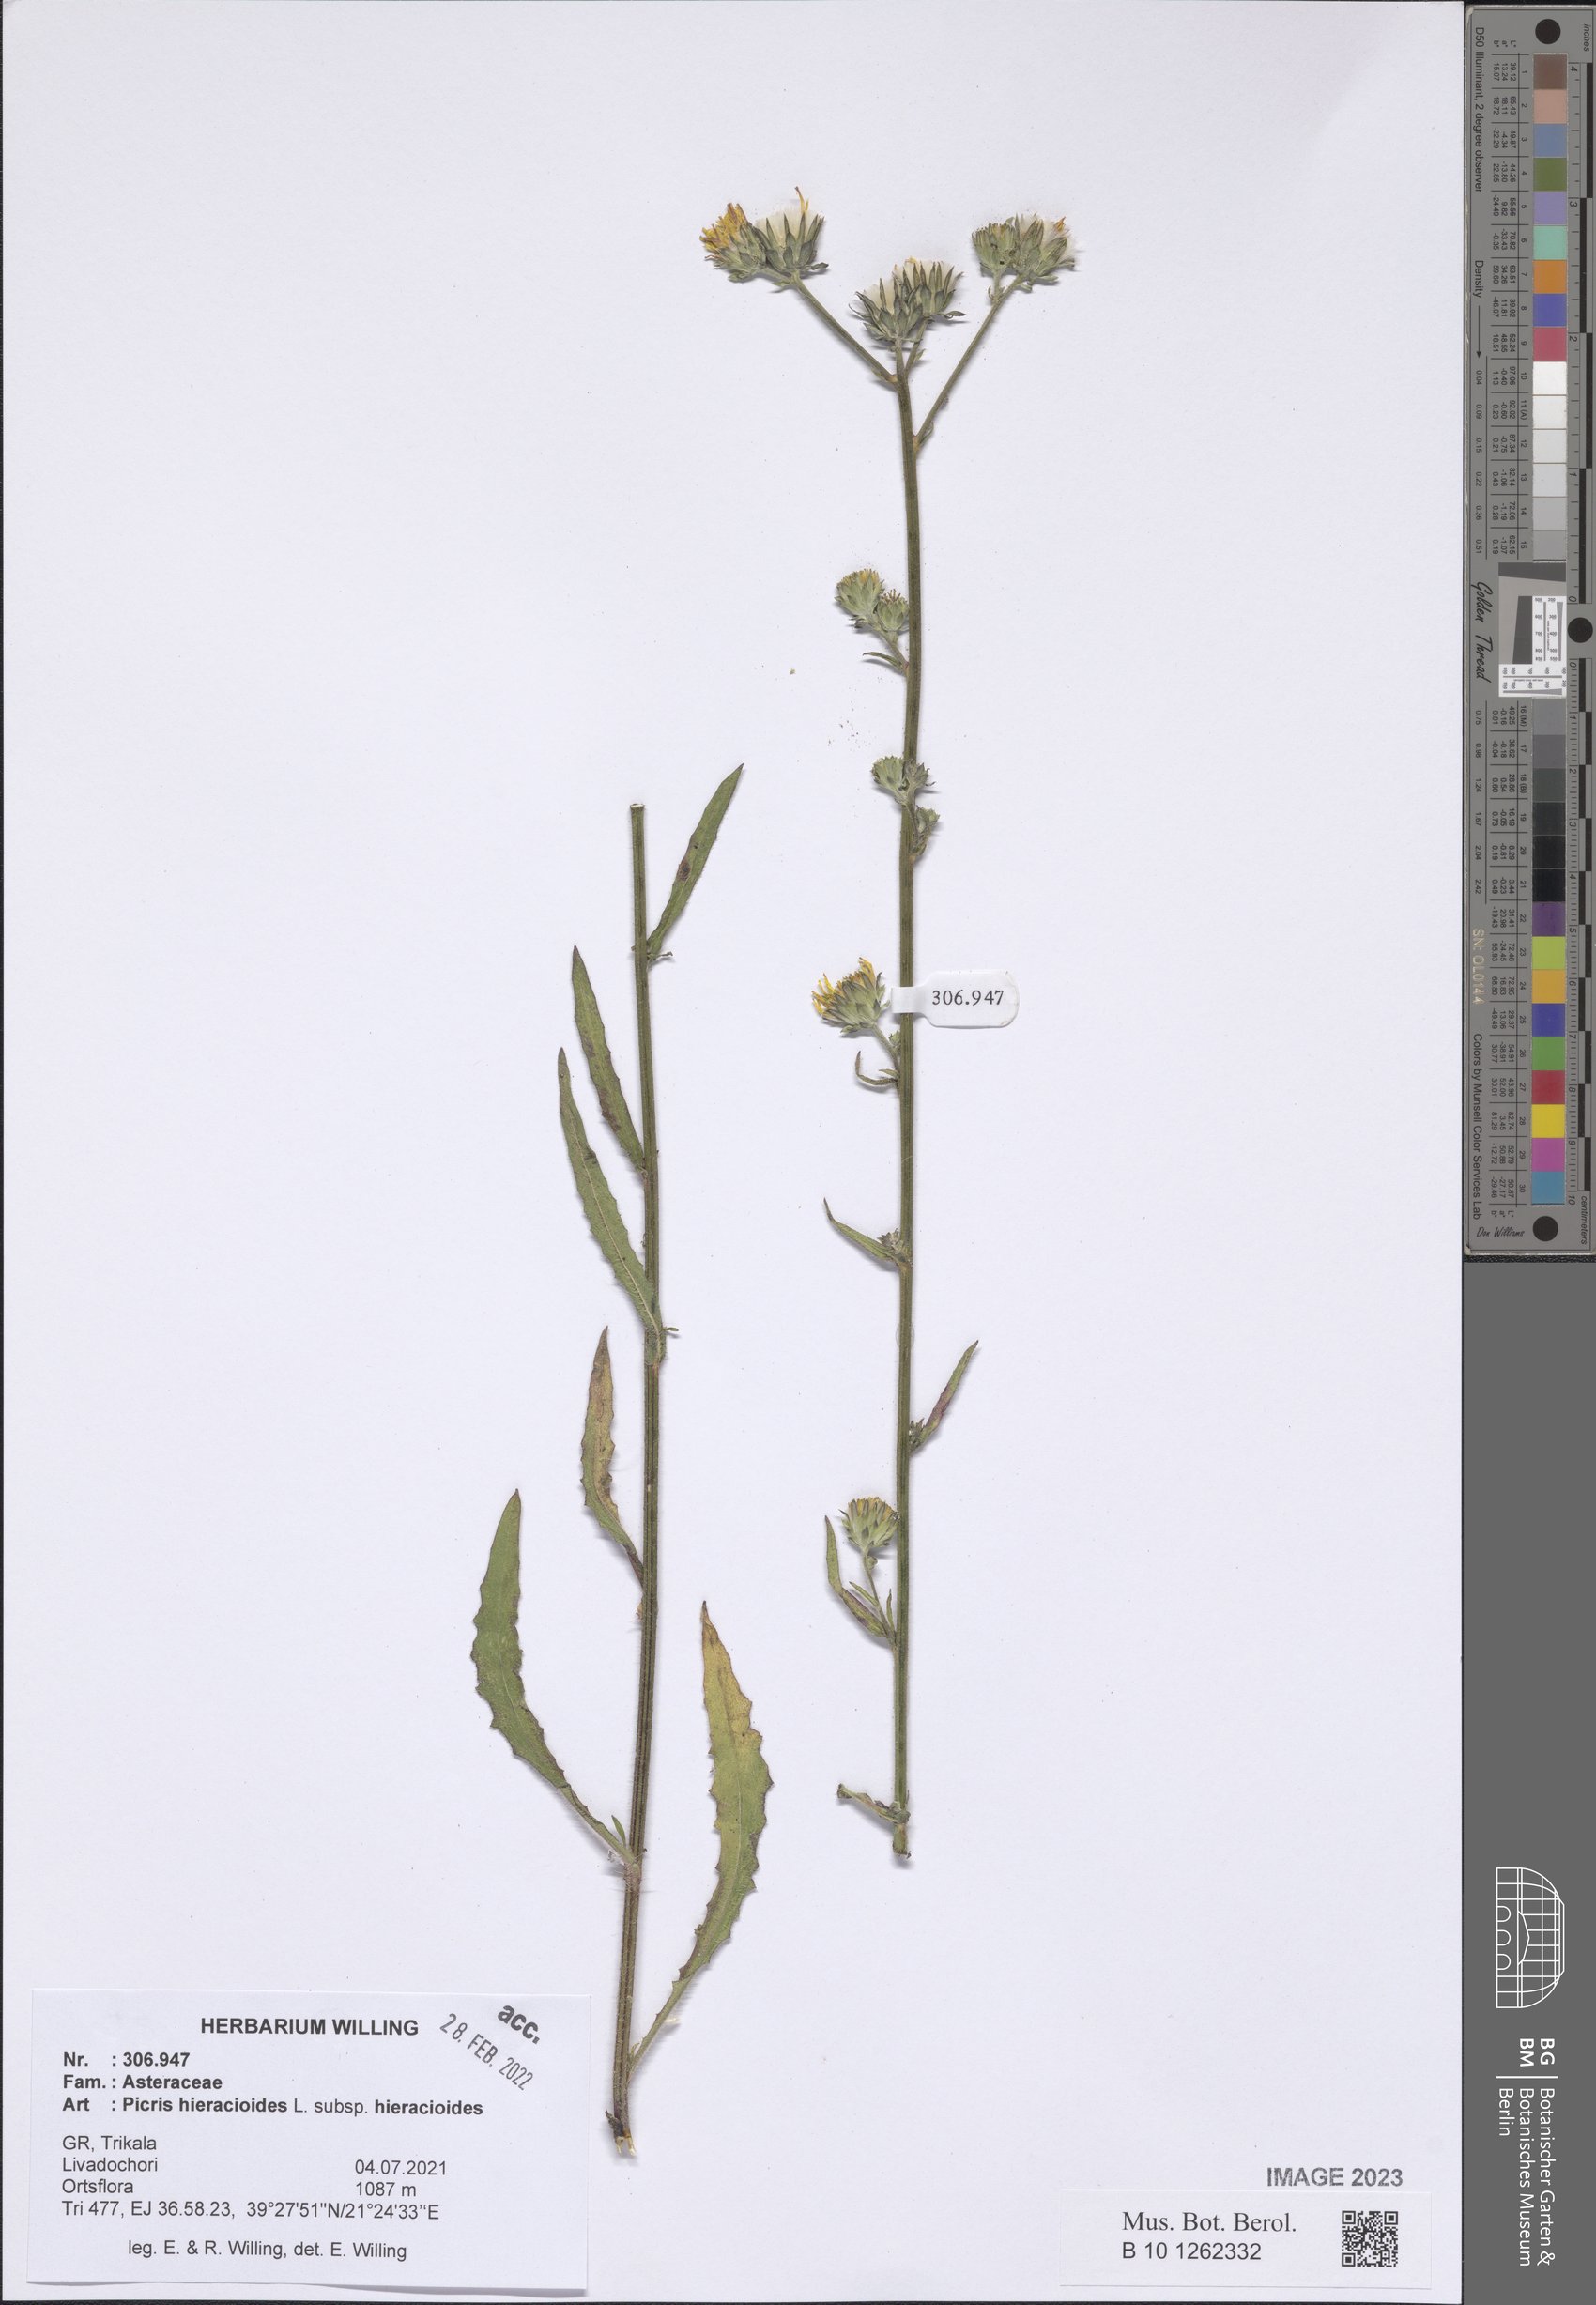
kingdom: Plantae
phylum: Tracheophyta
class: Magnoliopsida
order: Asterales
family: Asteraceae
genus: Picris
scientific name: Picris hieracioides
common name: Hawkweed oxtongue
